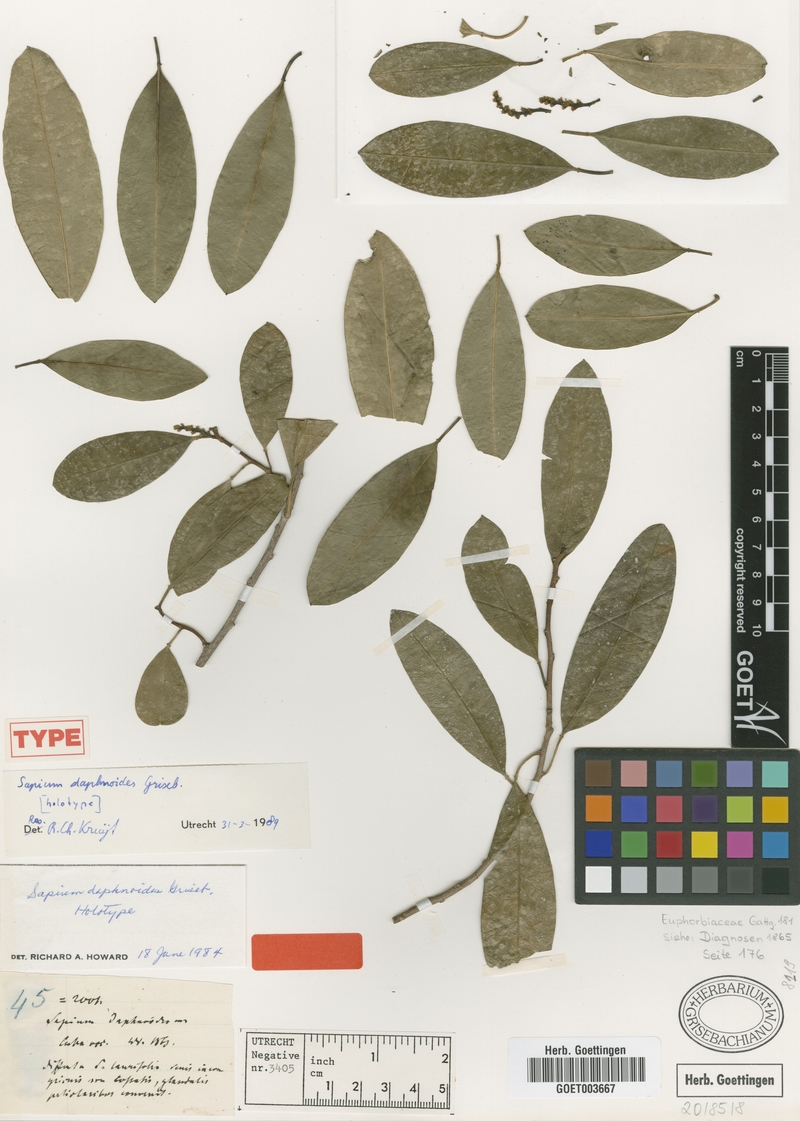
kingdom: Plantae
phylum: Tracheophyta
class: Magnoliopsida
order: Malpighiales
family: Euphorbiaceae
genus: Sapium
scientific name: Sapium daphnoides
